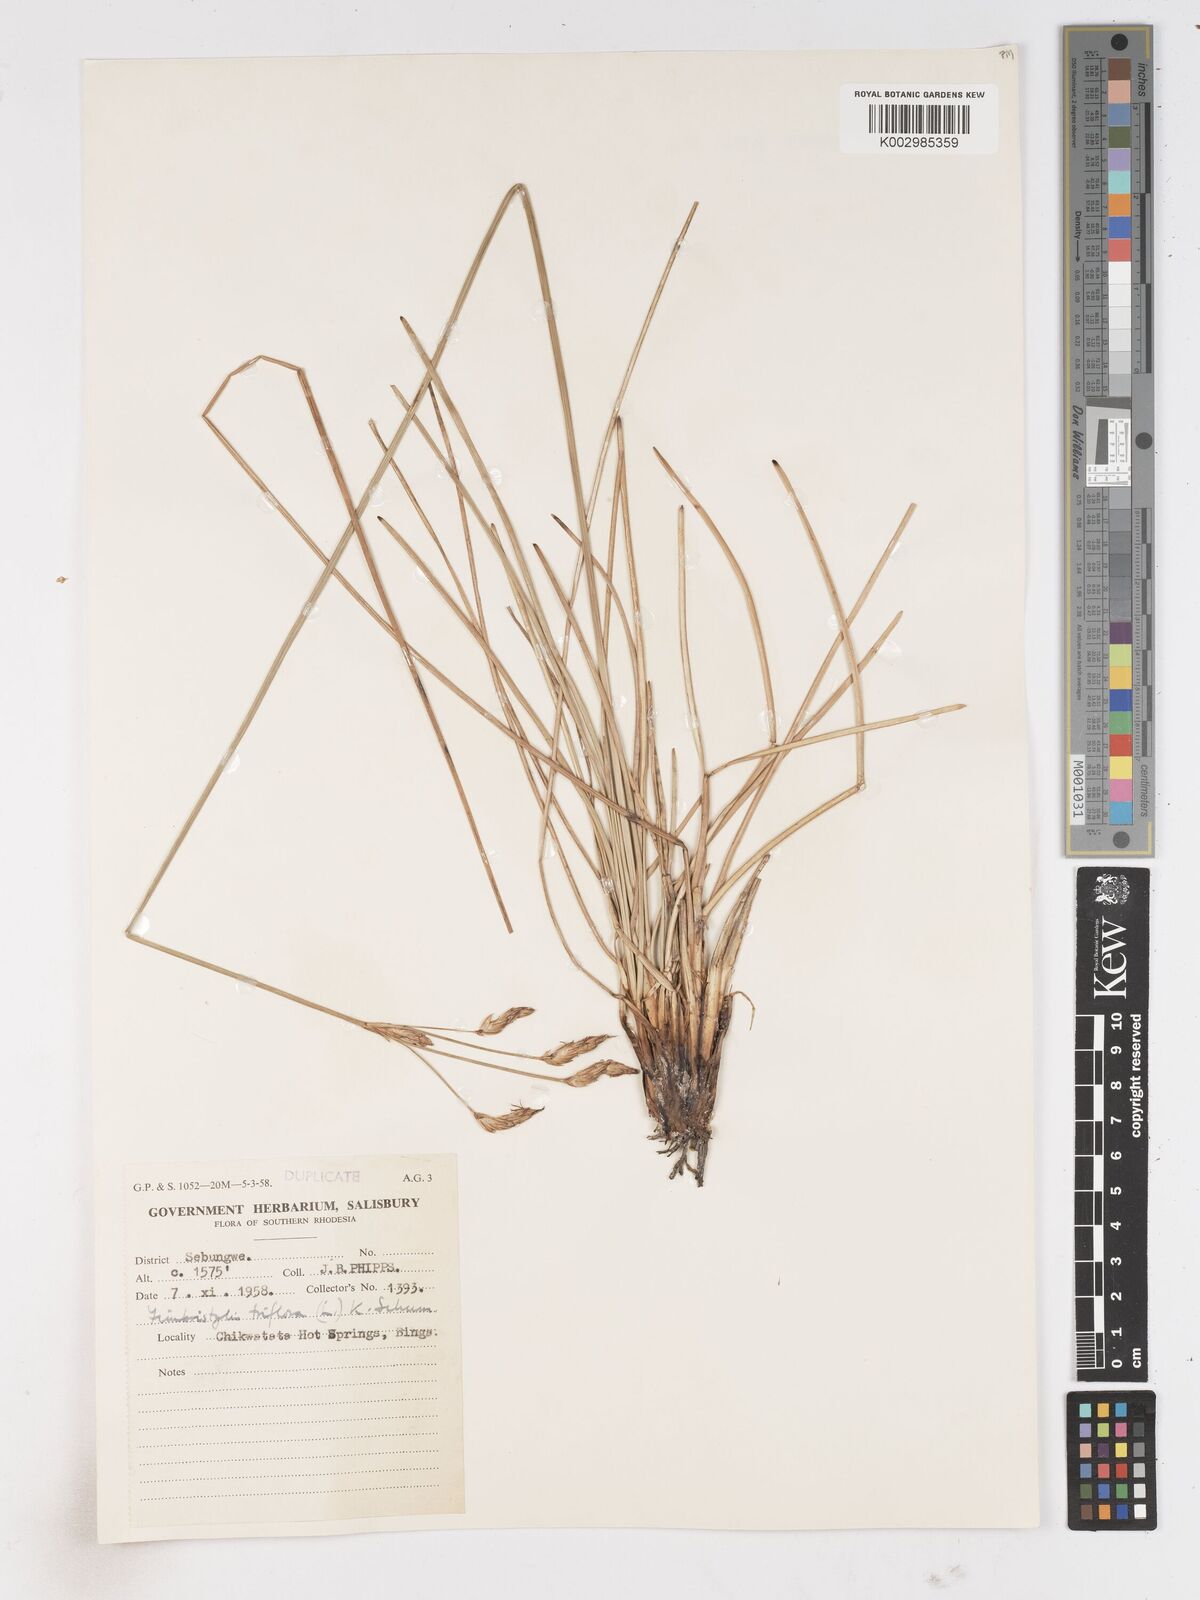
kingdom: Plantae
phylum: Tracheophyta
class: Liliopsida
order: Poales
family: Cyperaceae
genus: Abildgaardia
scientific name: Abildgaardia triflora
